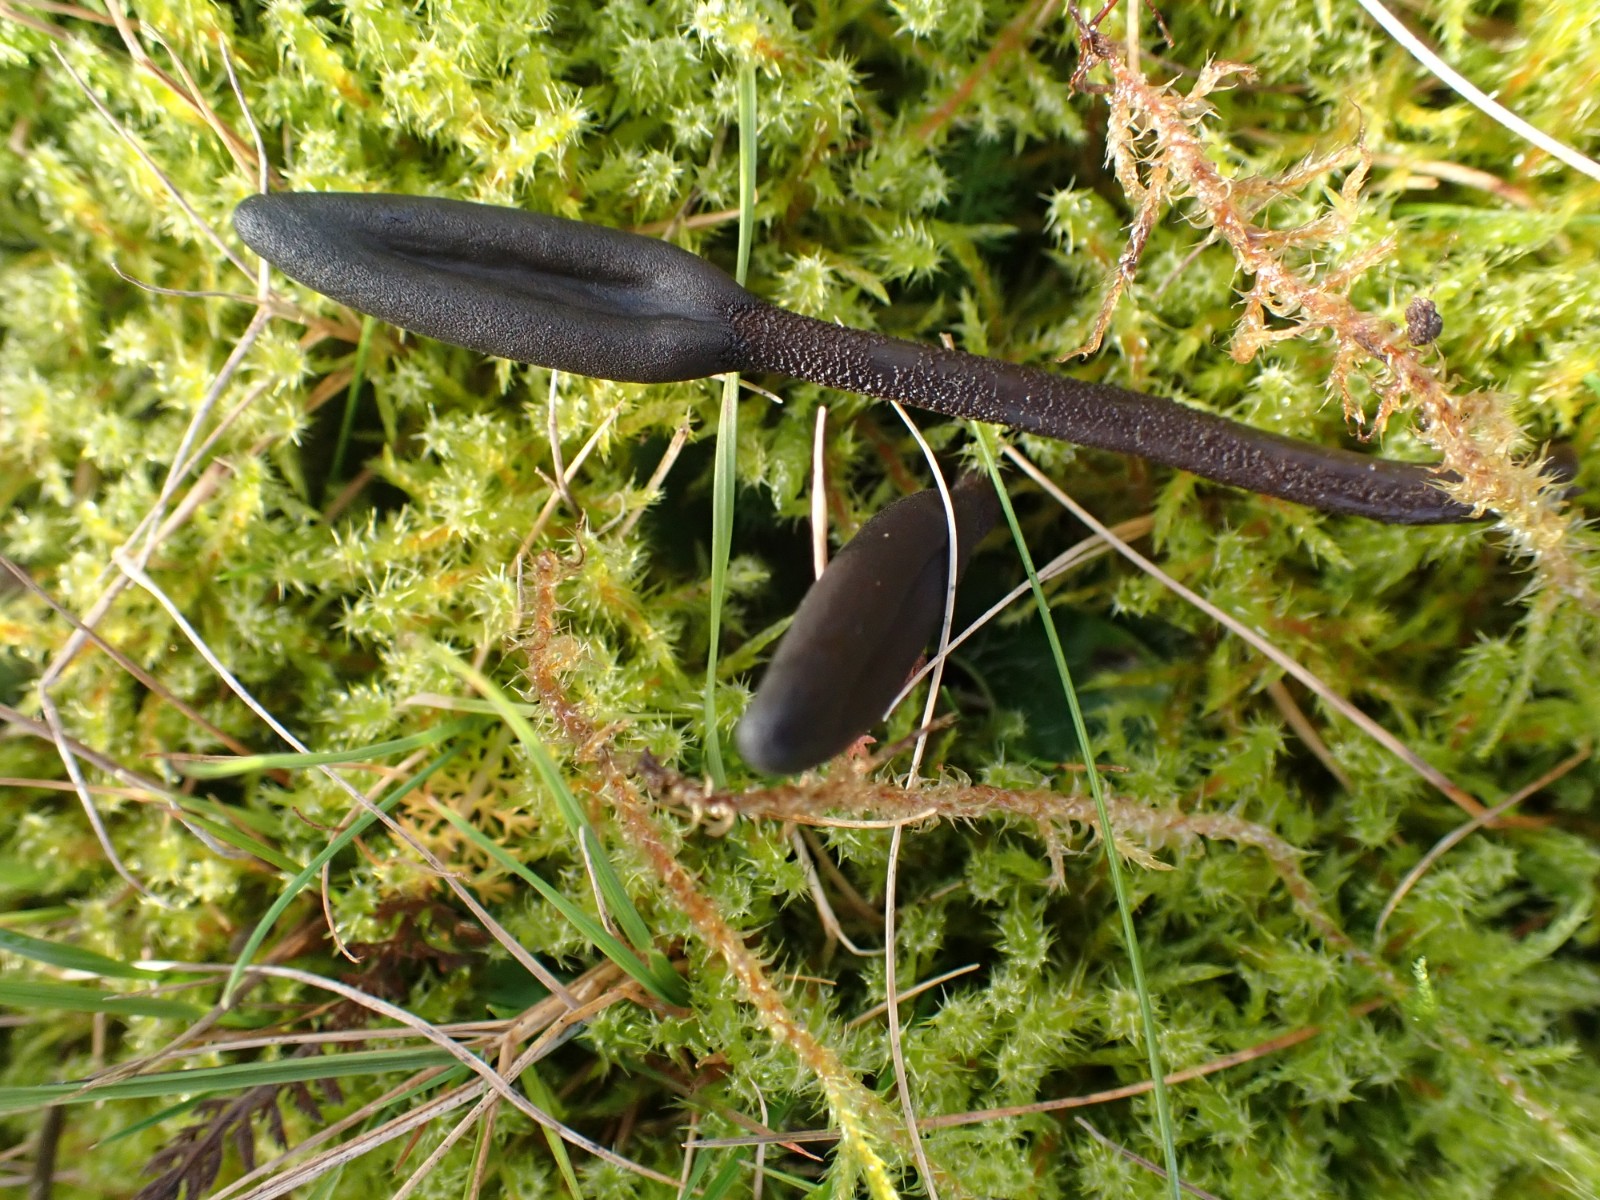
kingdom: Fungi
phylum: Ascomycota
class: Geoglossomycetes
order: Geoglossales
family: Geoglossaceae
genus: Geoglossum
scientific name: Geoglossum fallax
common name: småskællet jordtunge
